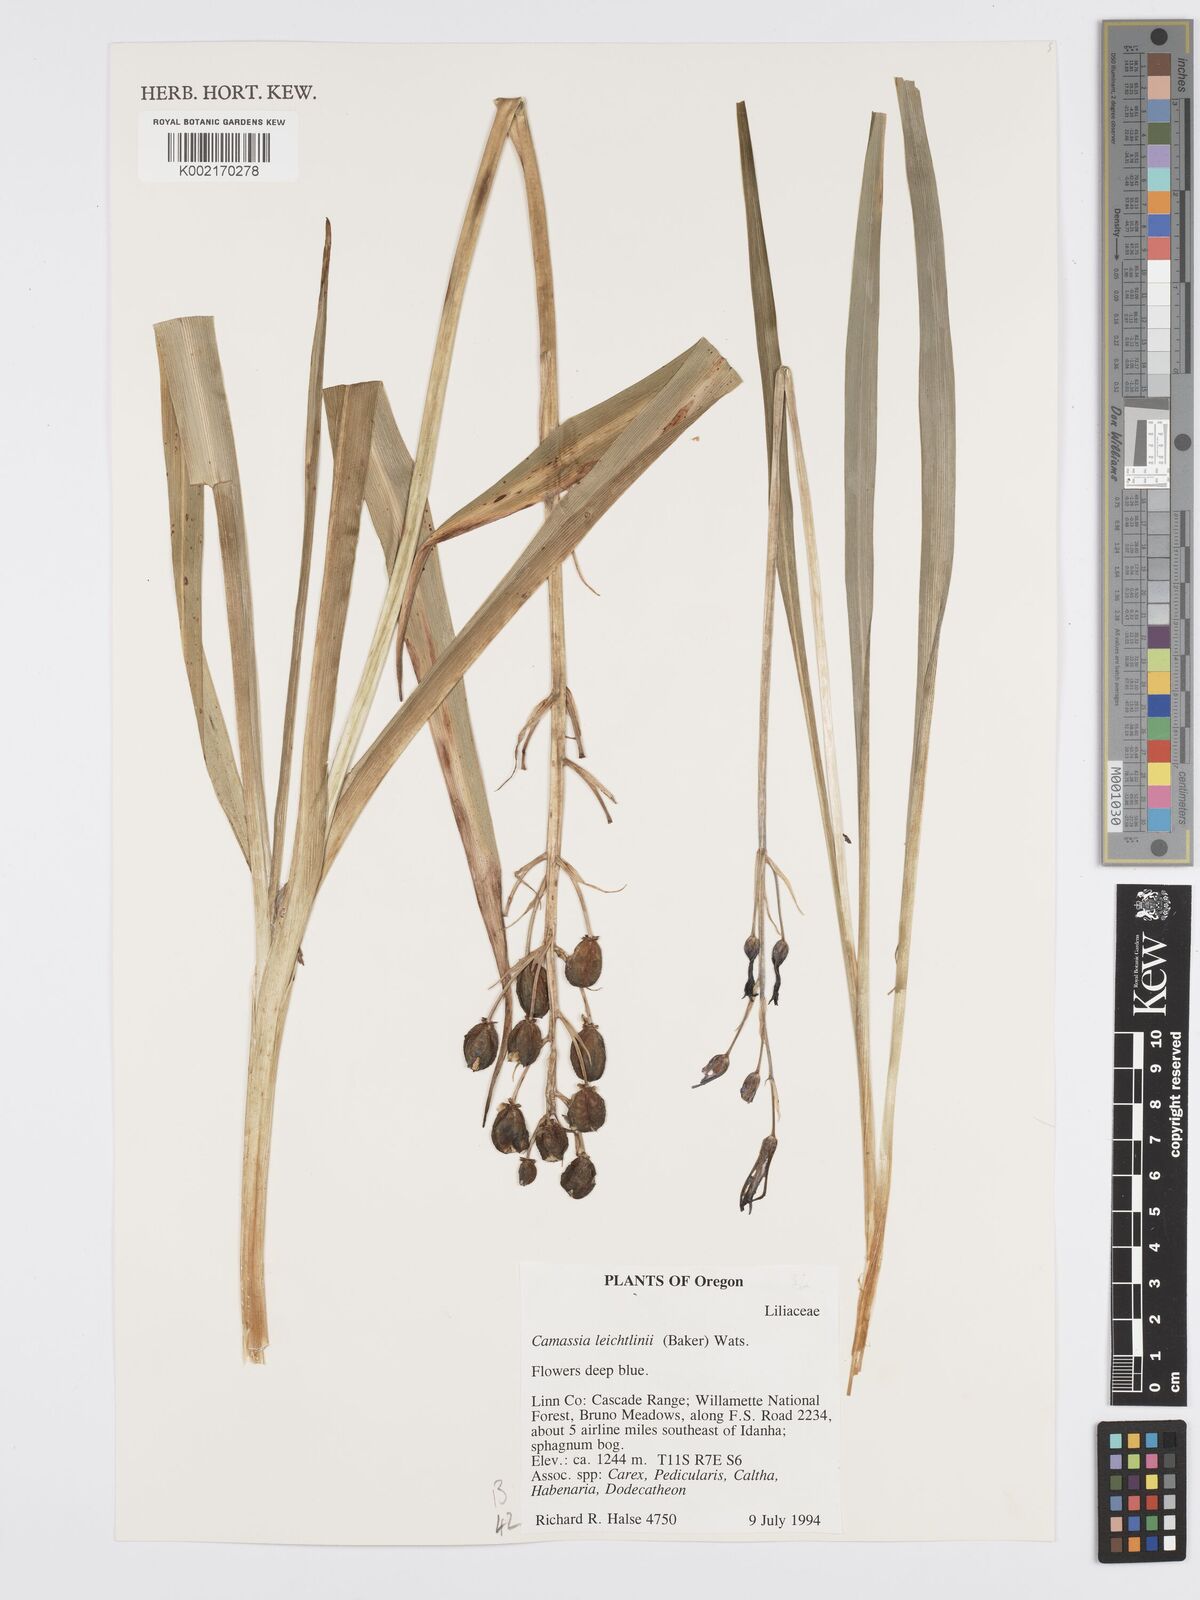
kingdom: Plantae
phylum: Tracheophyta
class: Liliopsida
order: Asparagales
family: Asparagaceae
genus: Camassia
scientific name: Camassia leichtlinii
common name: Leichtlin's camas
